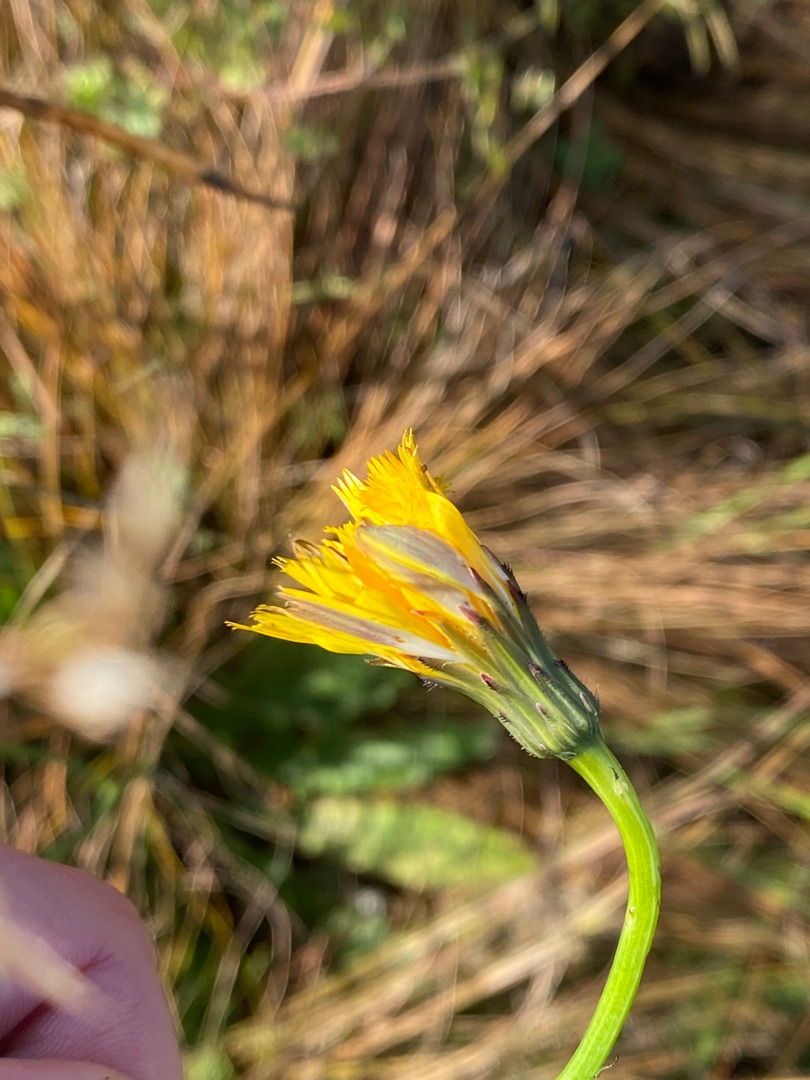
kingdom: Plantae
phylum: Tracheophyta
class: Magnoliopsida
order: Asterales
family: Asteraceae
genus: Hypochaeris
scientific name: Hypochaeris radicata
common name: Almindelig kongepen
